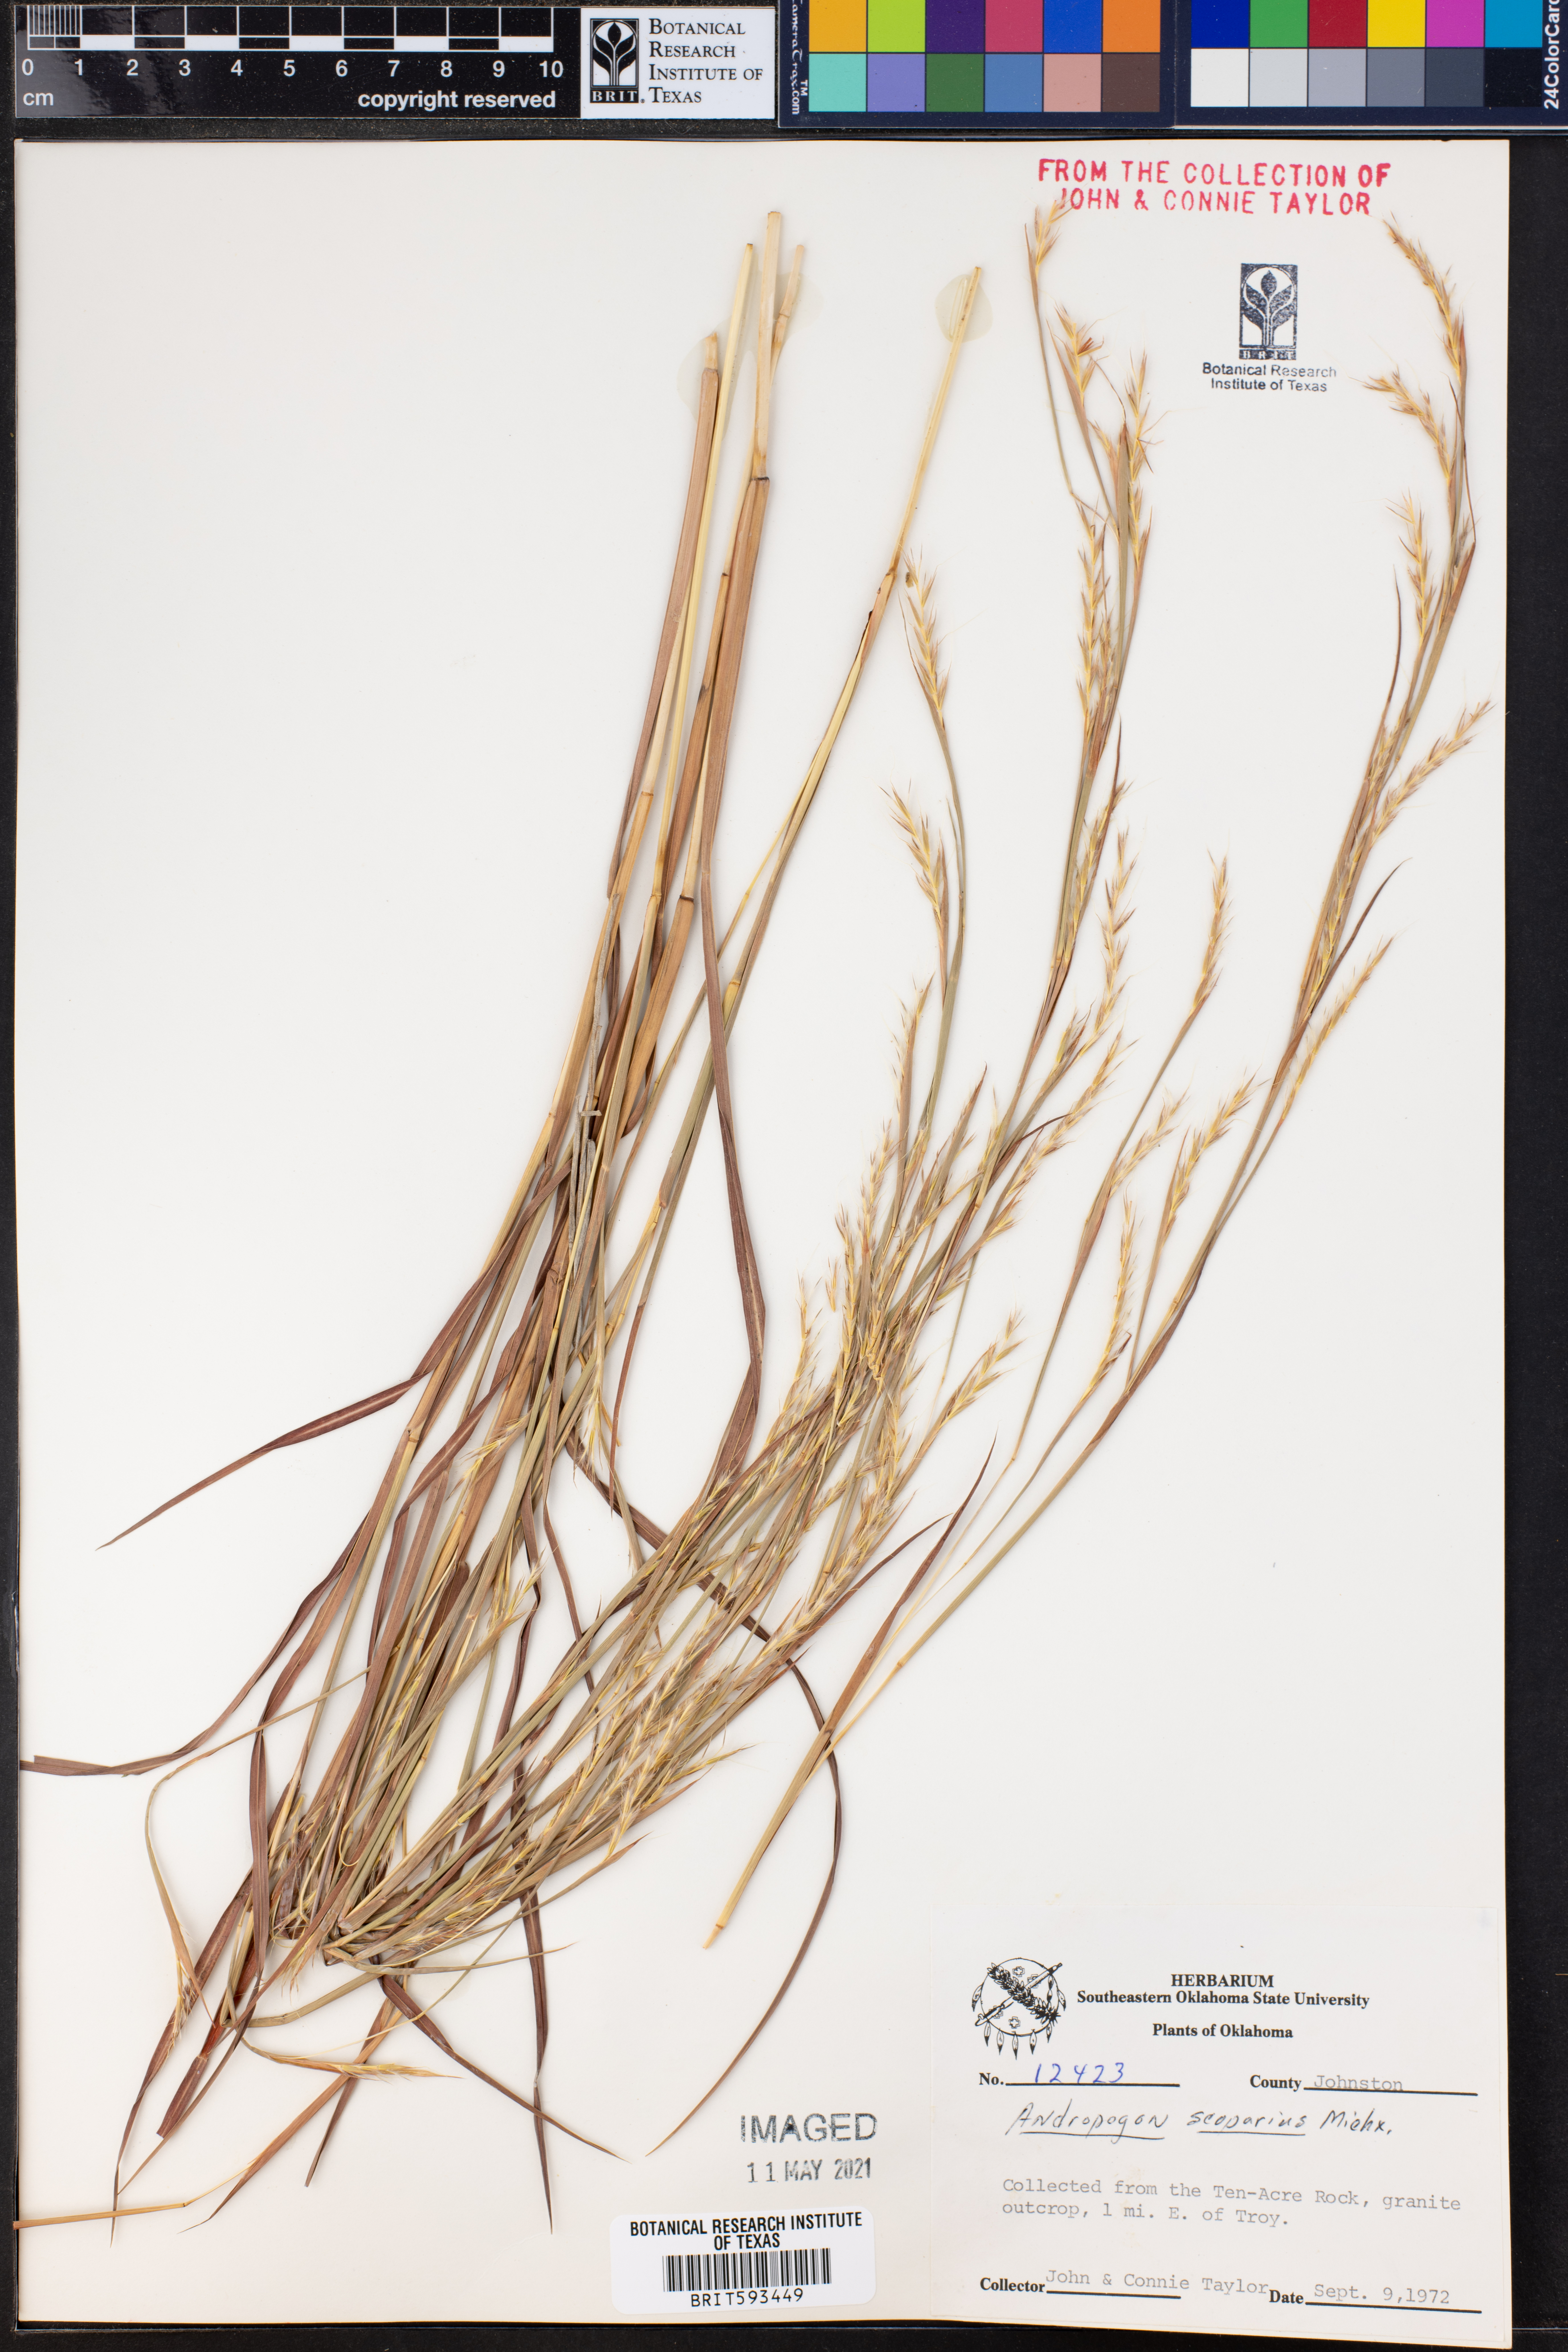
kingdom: Plantae
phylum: Tracheophyta
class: Liliopsida
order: Poales
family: Poaceae
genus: Schizachyrium
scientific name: Schizachyrium scoparium
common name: Little bluestem
